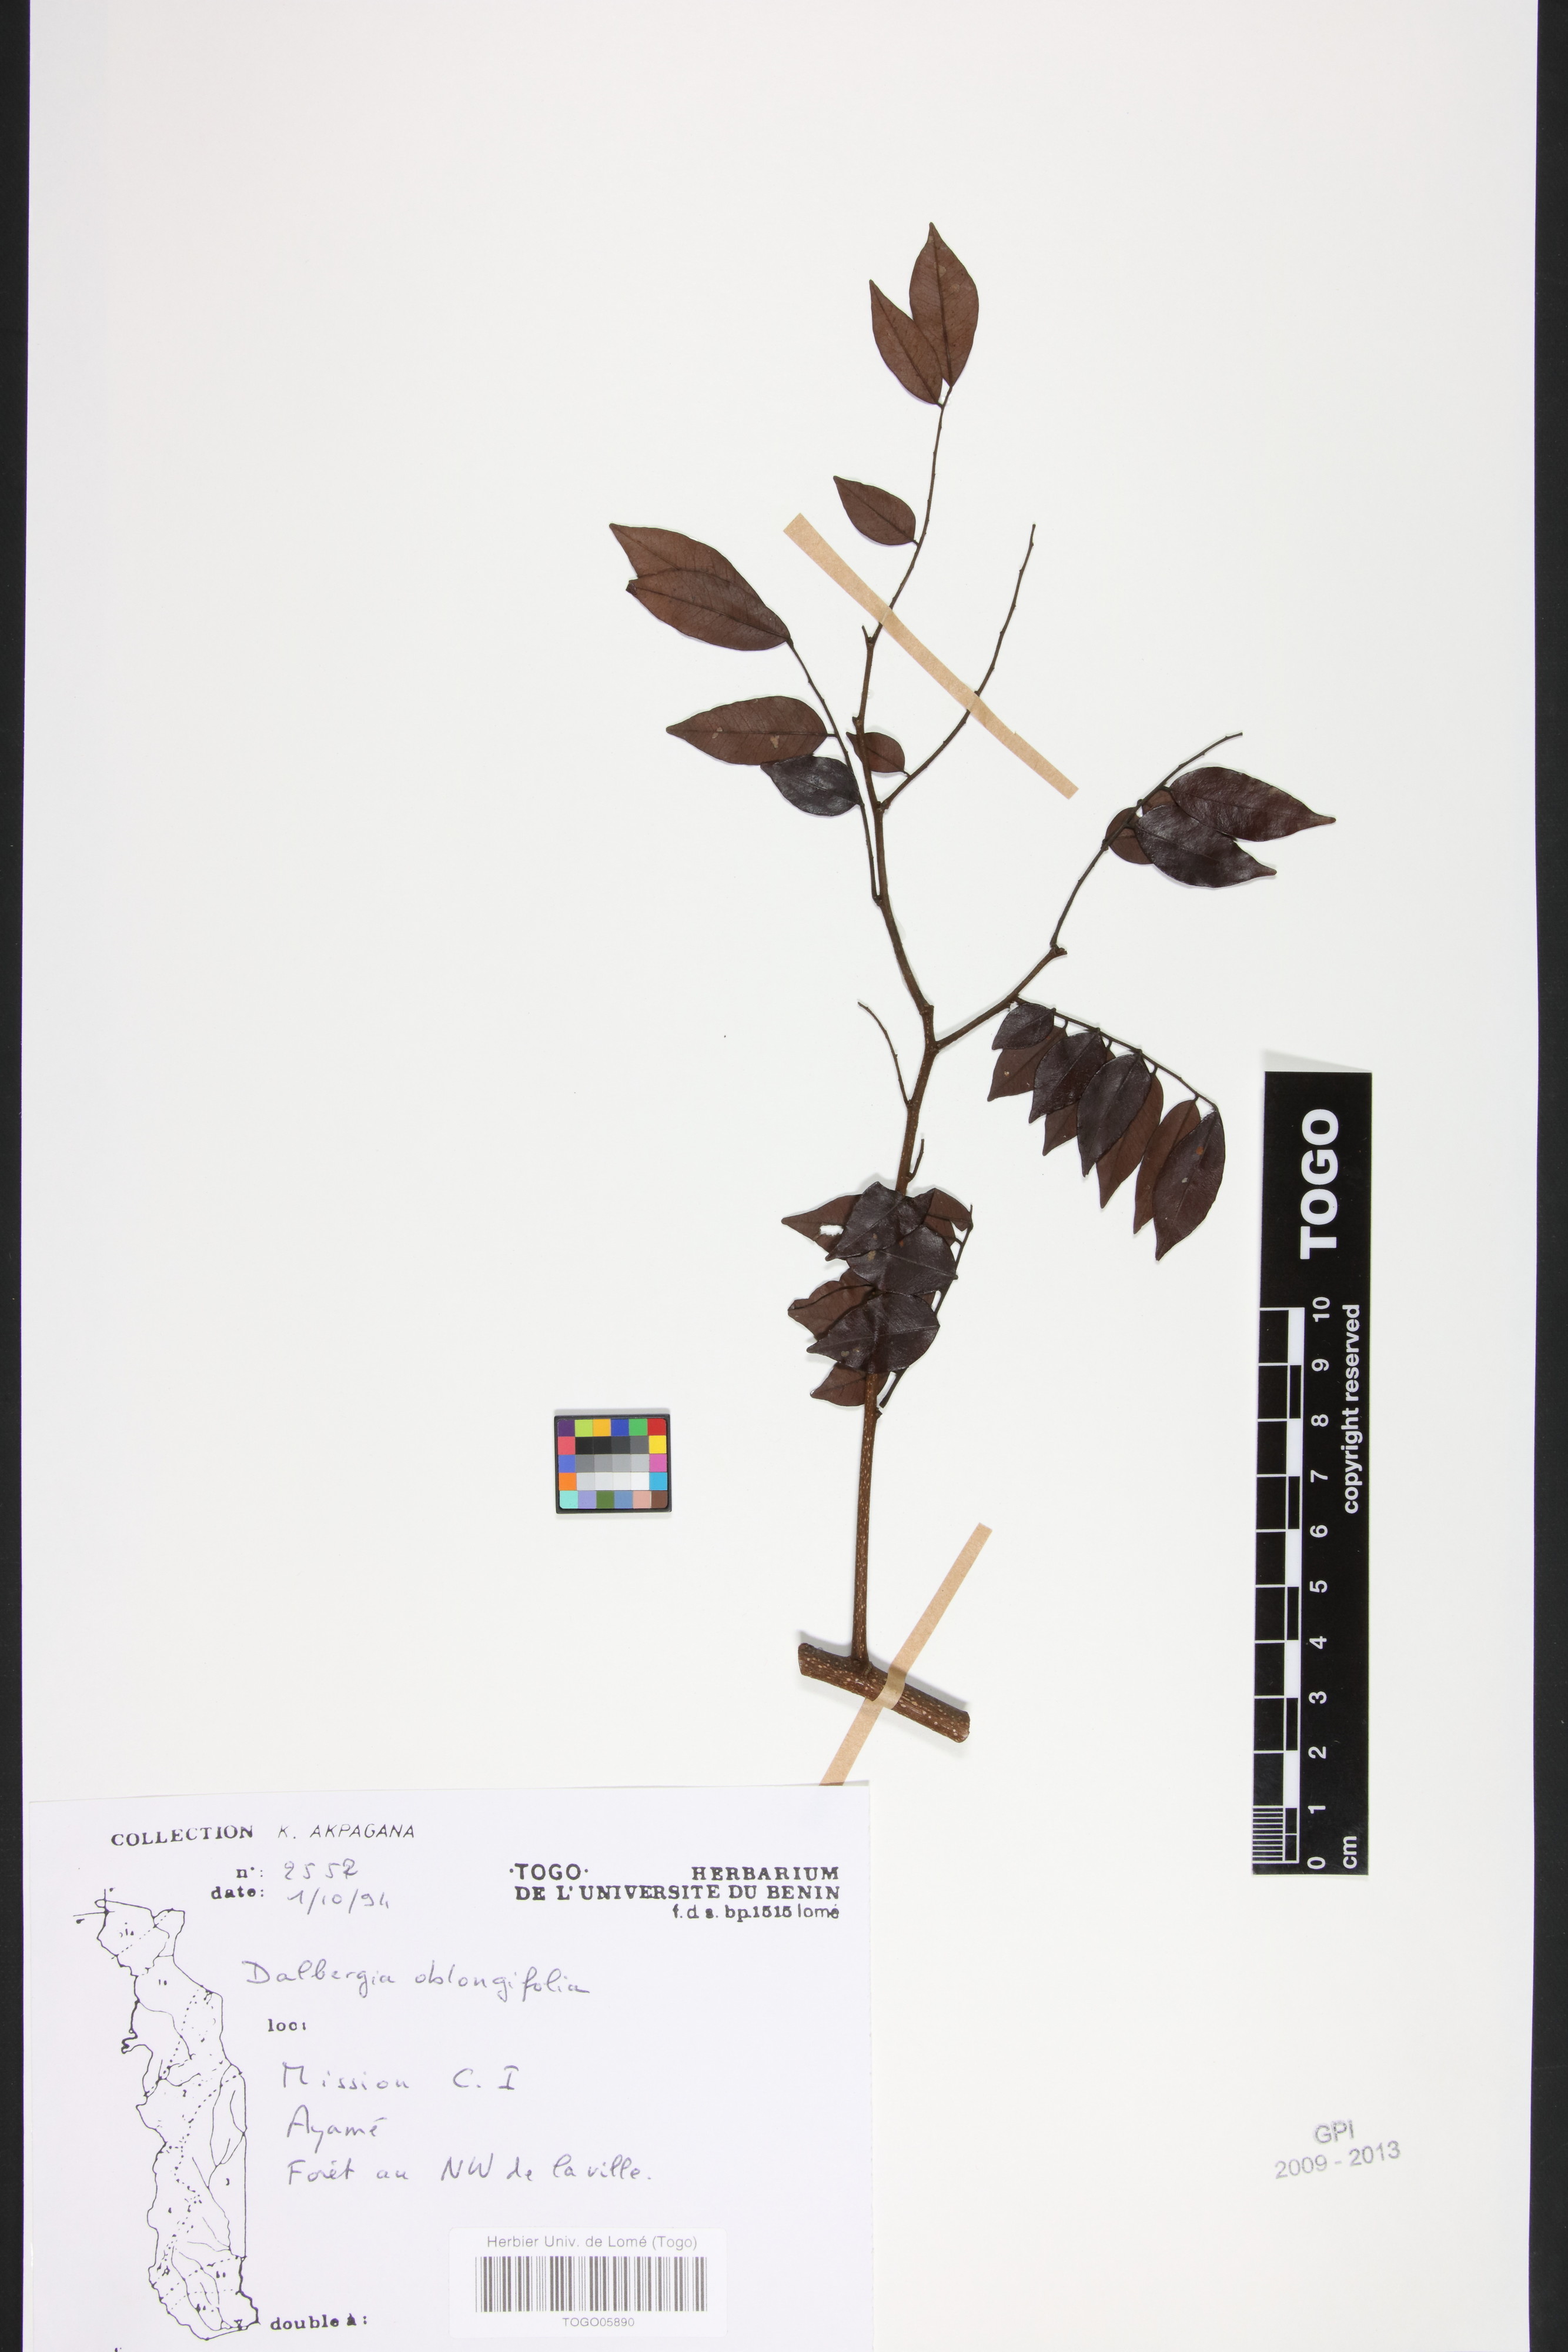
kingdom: Plantae
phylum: Tracheophyta
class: Magnoliopsida
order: Fabales
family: Fabaceae
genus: Dalbergia
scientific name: Dalbergia oblongifolia
